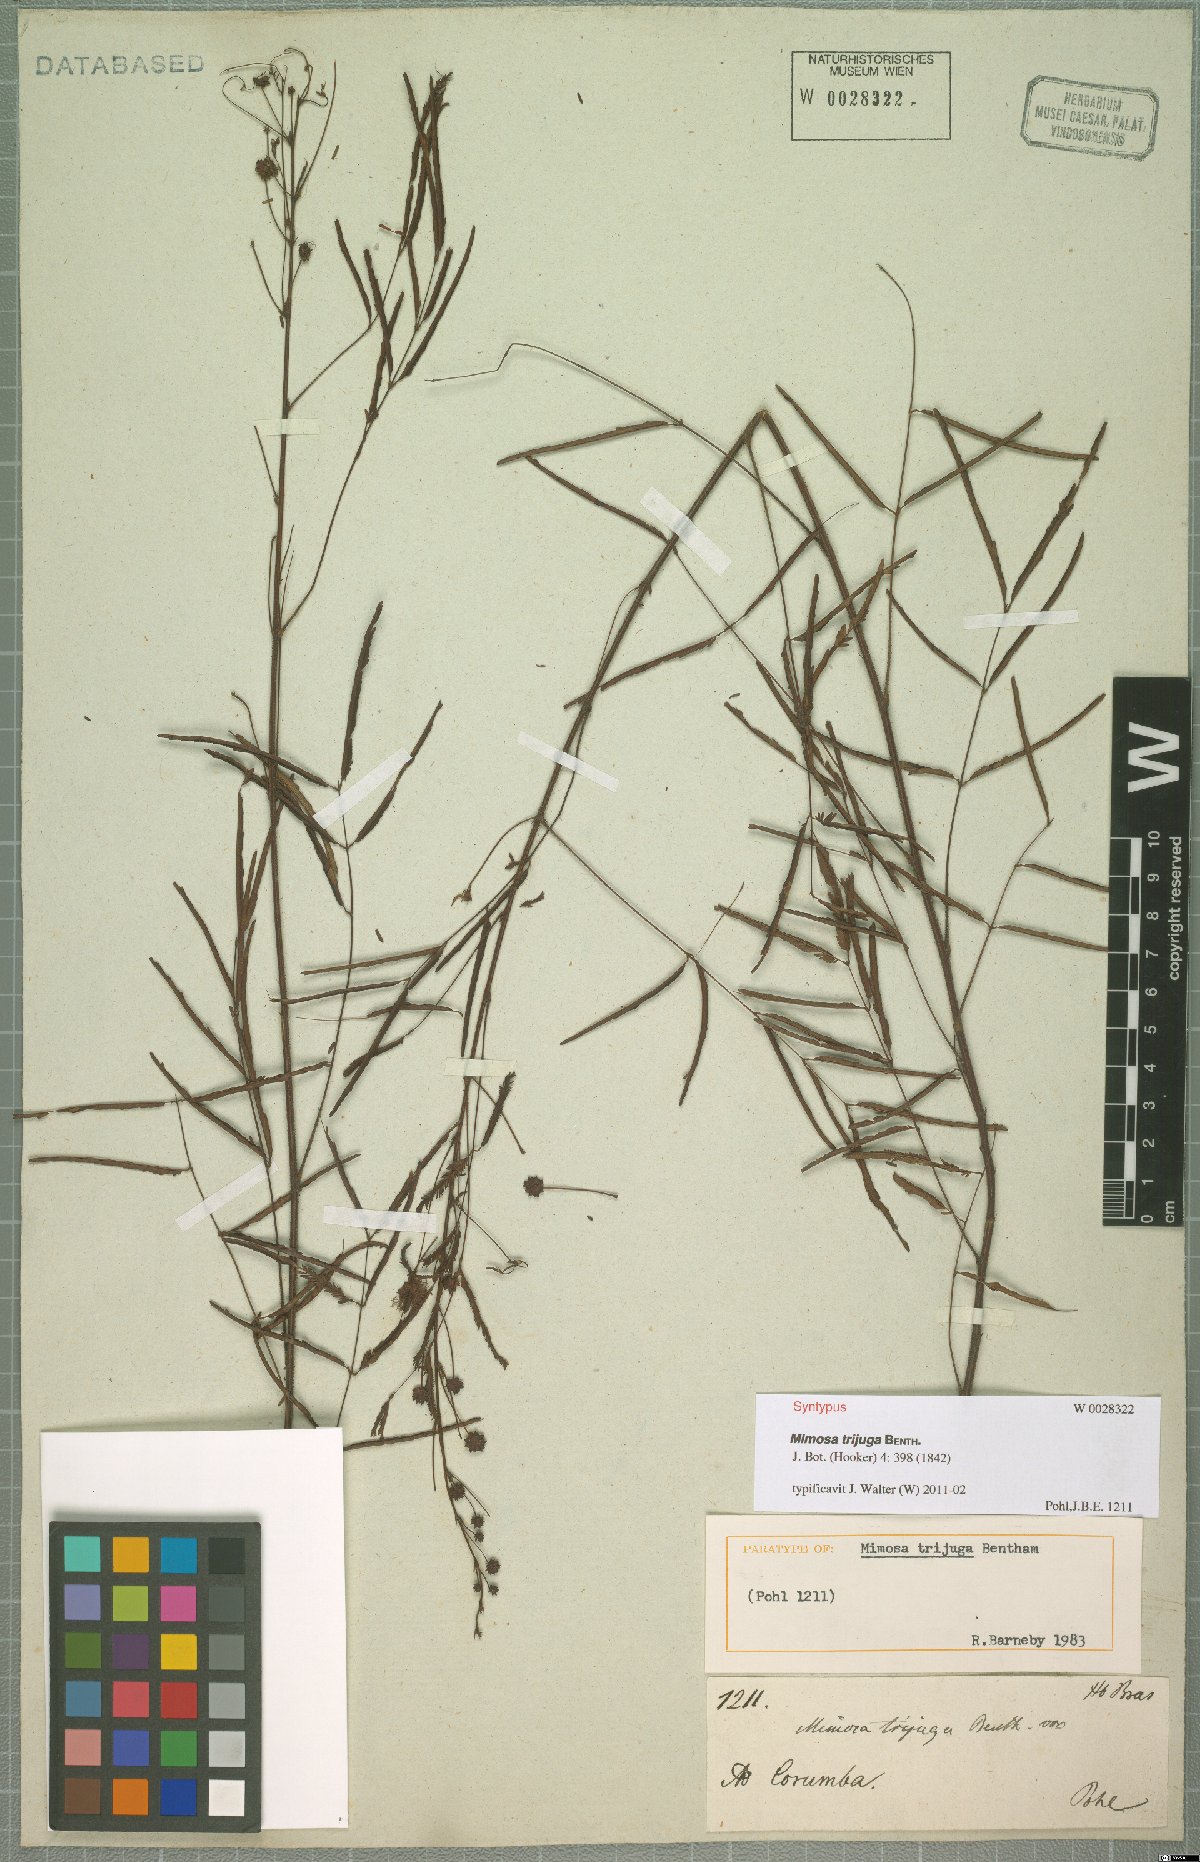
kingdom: Plantae
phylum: Tracheophyta
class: Magnoliopsida
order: Fabales
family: Fabaceae
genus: Mimosa
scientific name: Mimosa somnians
